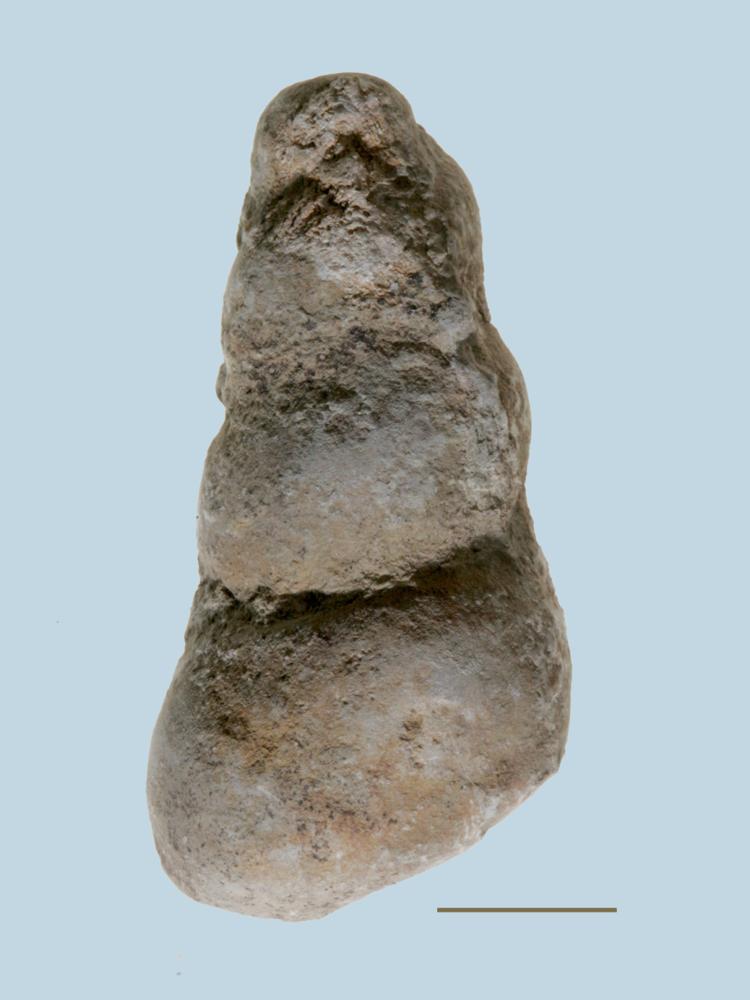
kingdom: Animalia
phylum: Mollusca
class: Gastropoda
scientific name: Gastropoda
